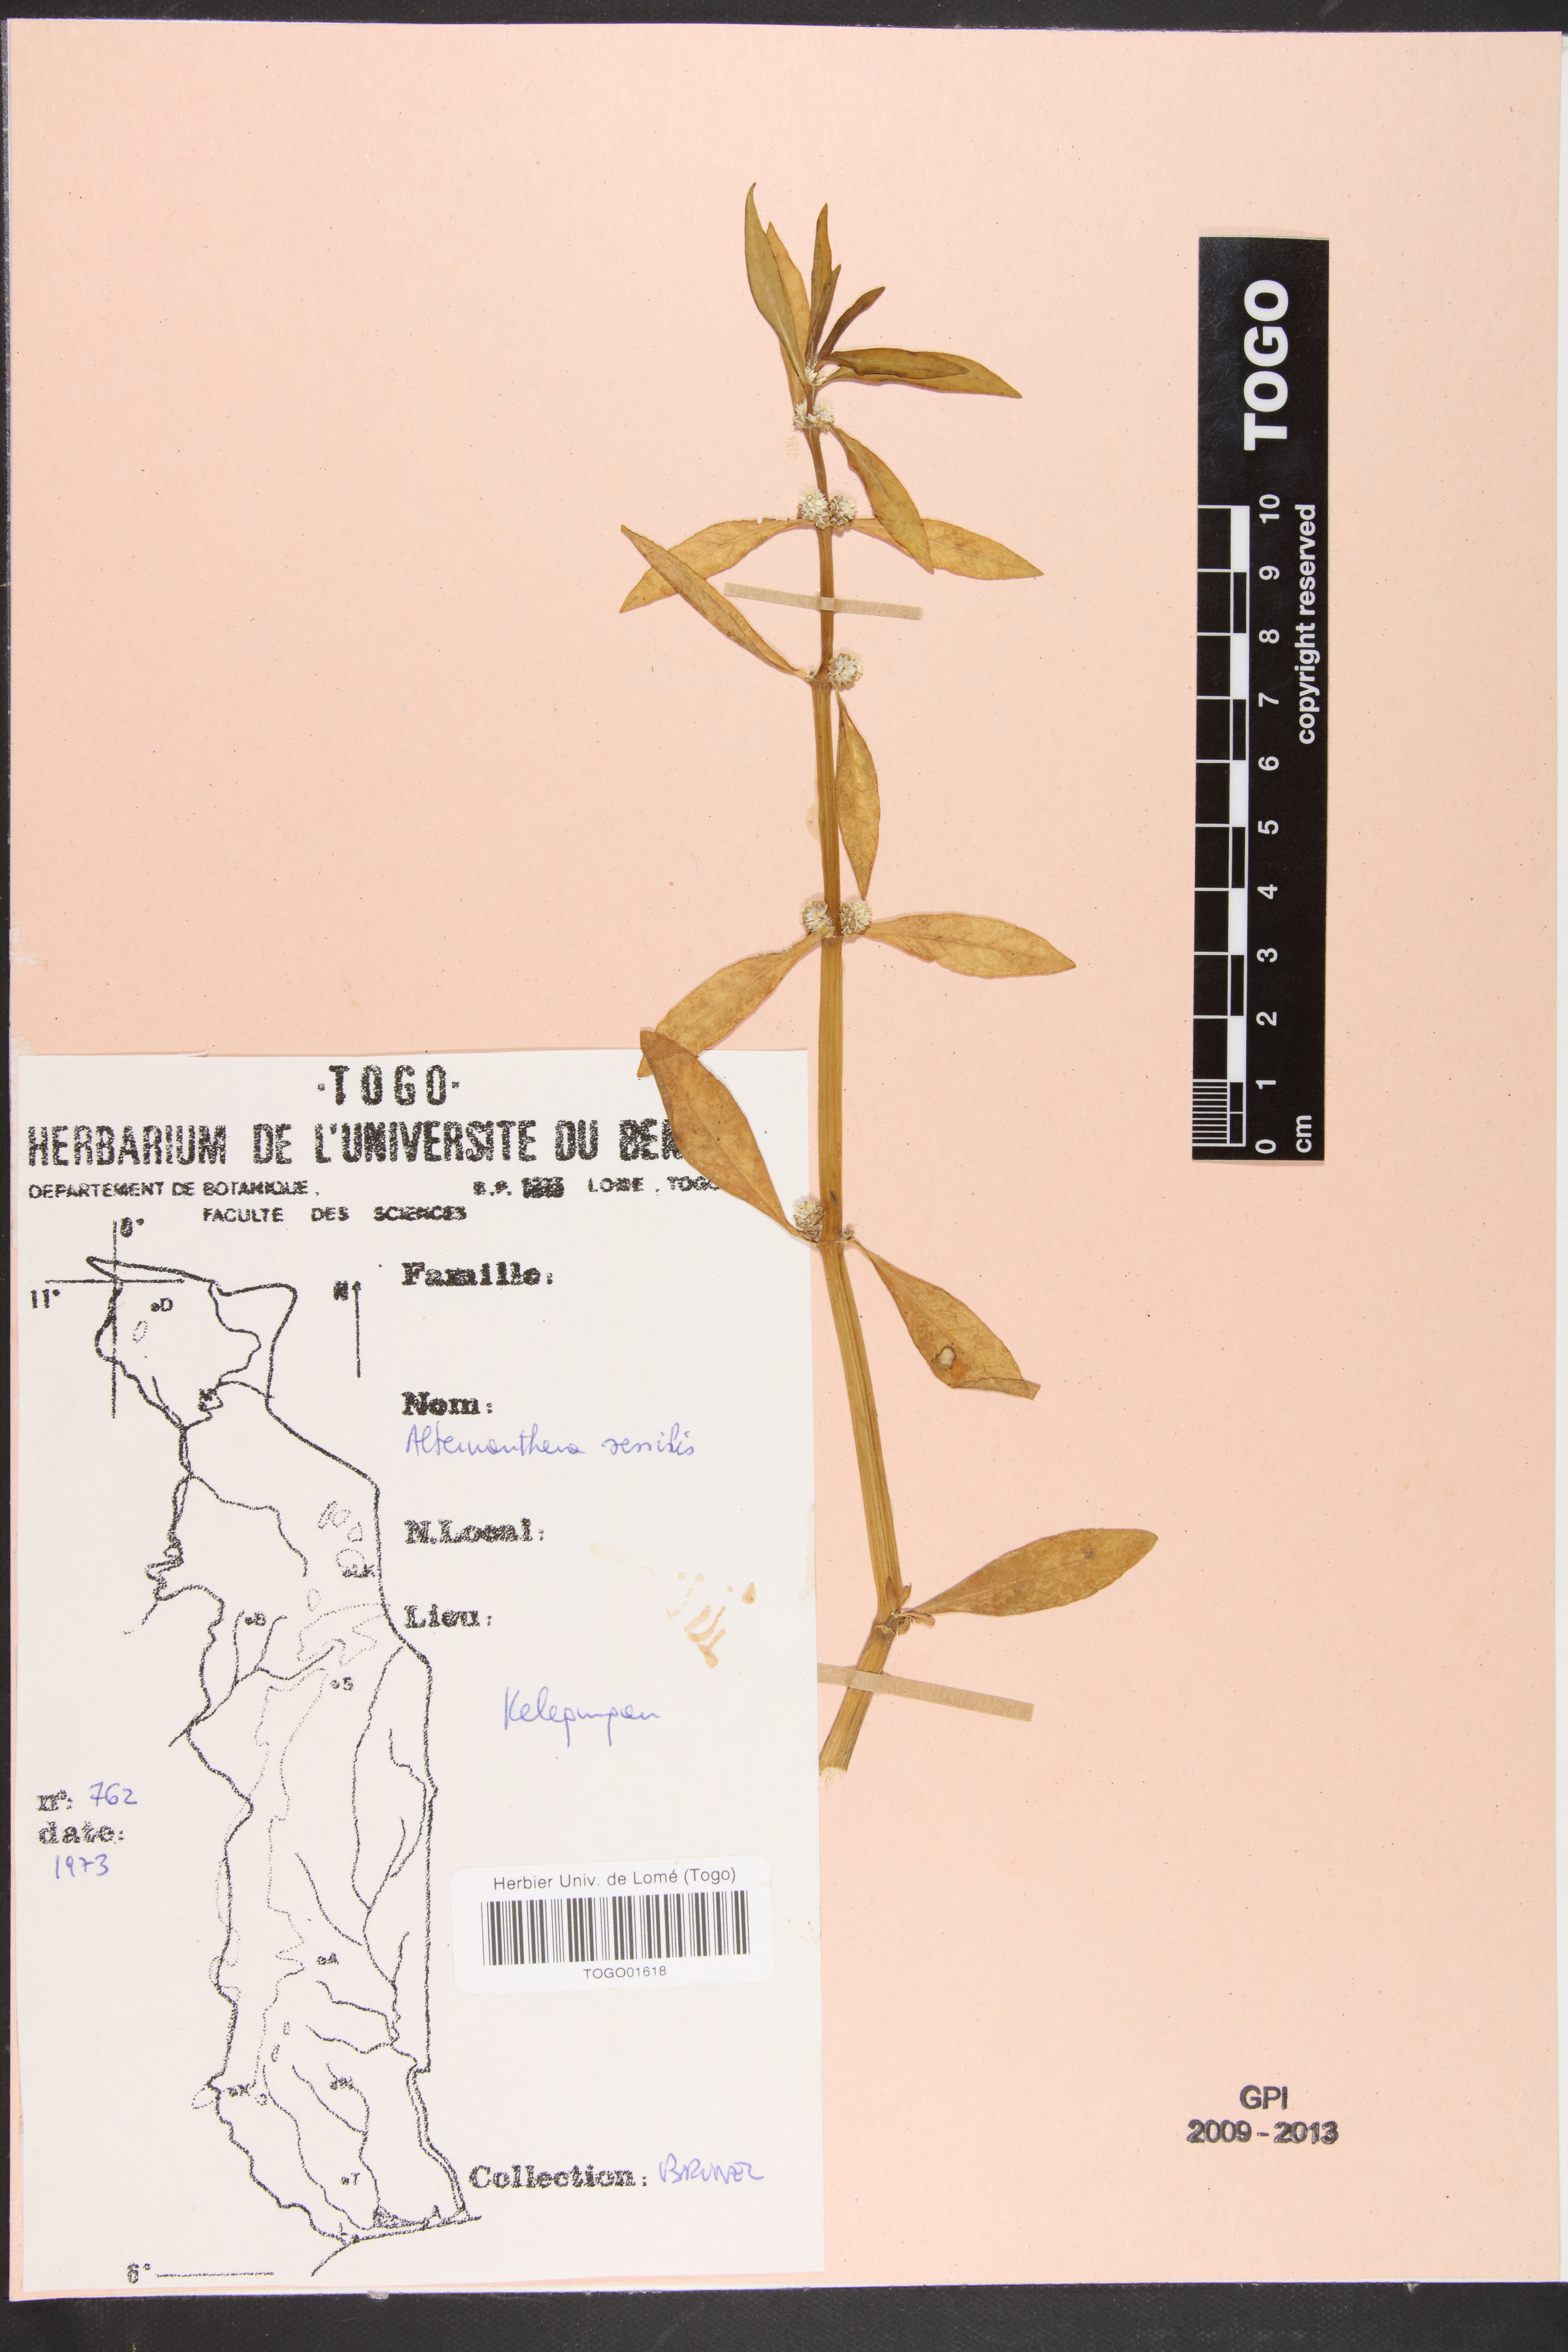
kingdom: Plantae
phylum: Tracheophyta
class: Magnoliopsida
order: Caryophyllales
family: Amaranthaceae
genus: Alternanthera
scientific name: Alternanthera sessilis
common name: Sessile joyweed
